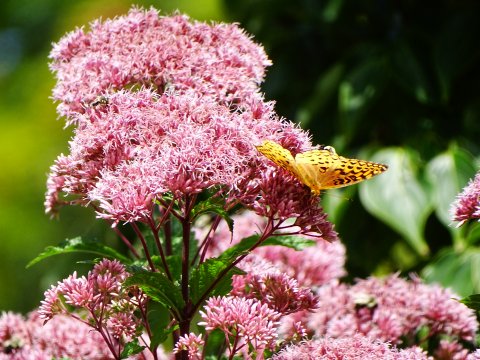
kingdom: Animalia
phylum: Arthropoda
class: Insecta
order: Lepidoptera
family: Nymphalidae
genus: Speyeria
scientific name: Speyeria aphrodite
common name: Aphrodite Fritillary
